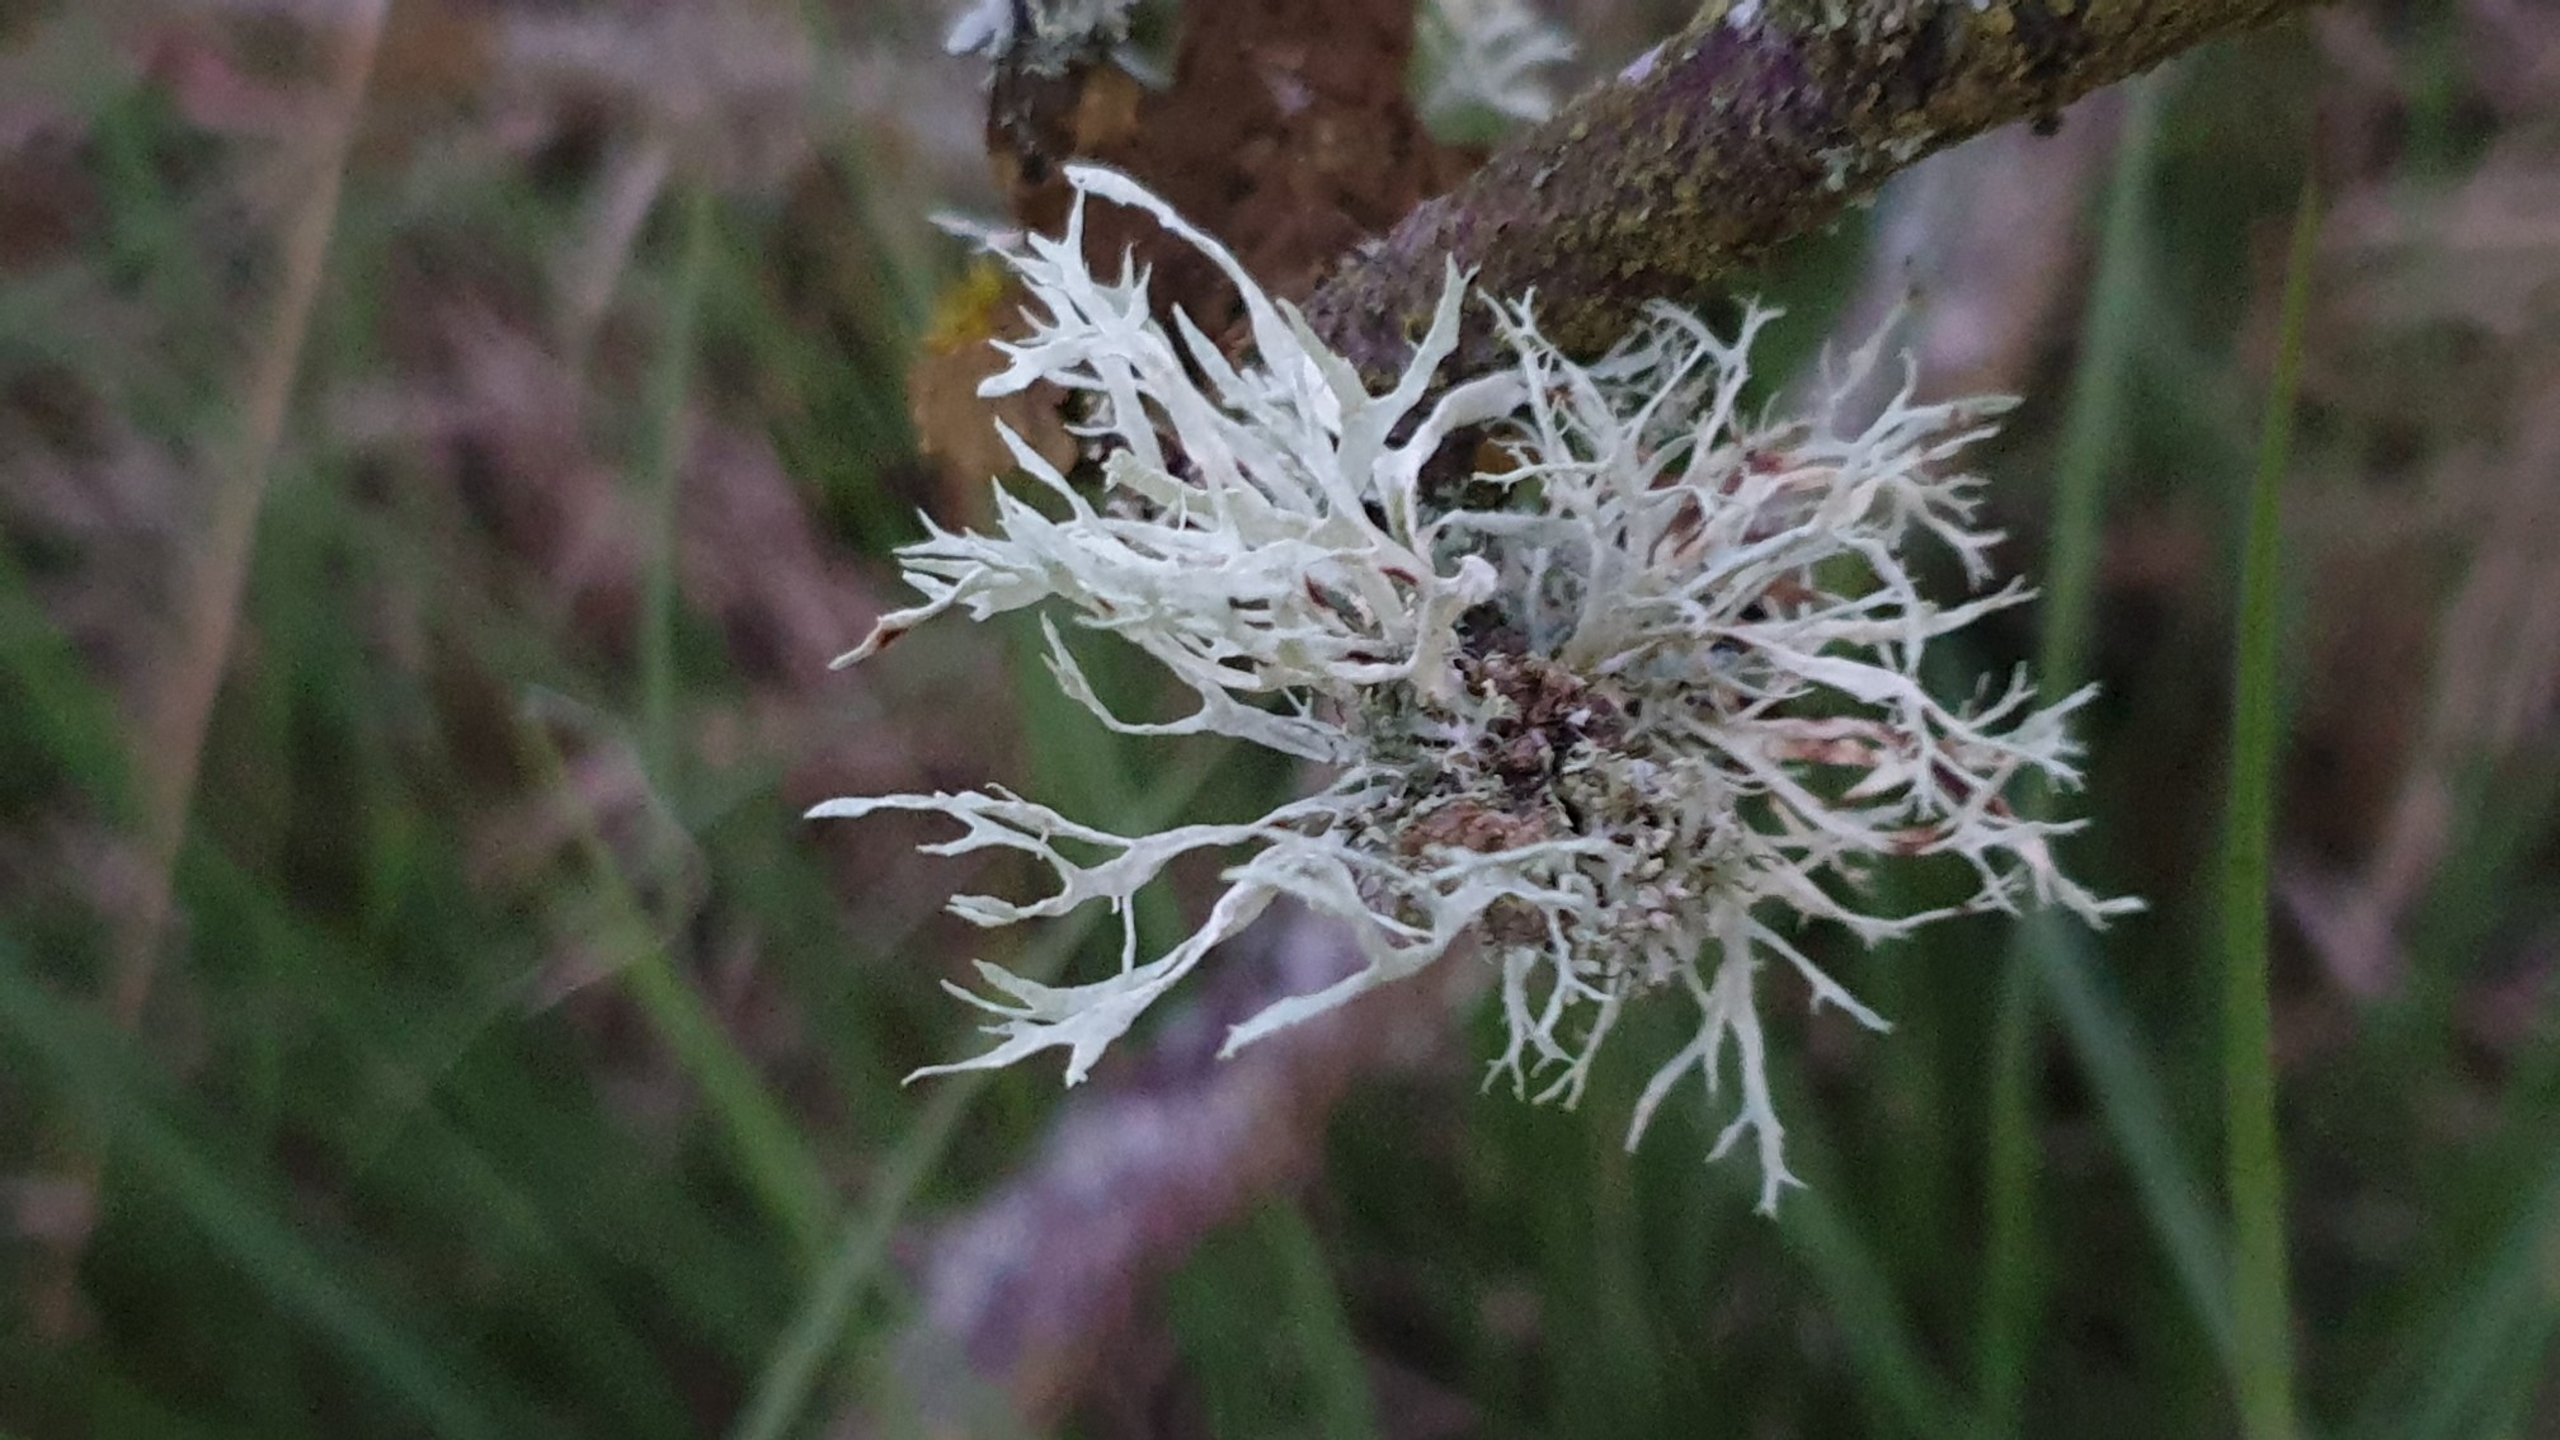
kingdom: Fungi
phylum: Ascomycota
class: Lecanoromycetes
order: Lecanorales
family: Ramalinaceae
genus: Ramalina
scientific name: Ramalina farinacea
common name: Melet grenlav
